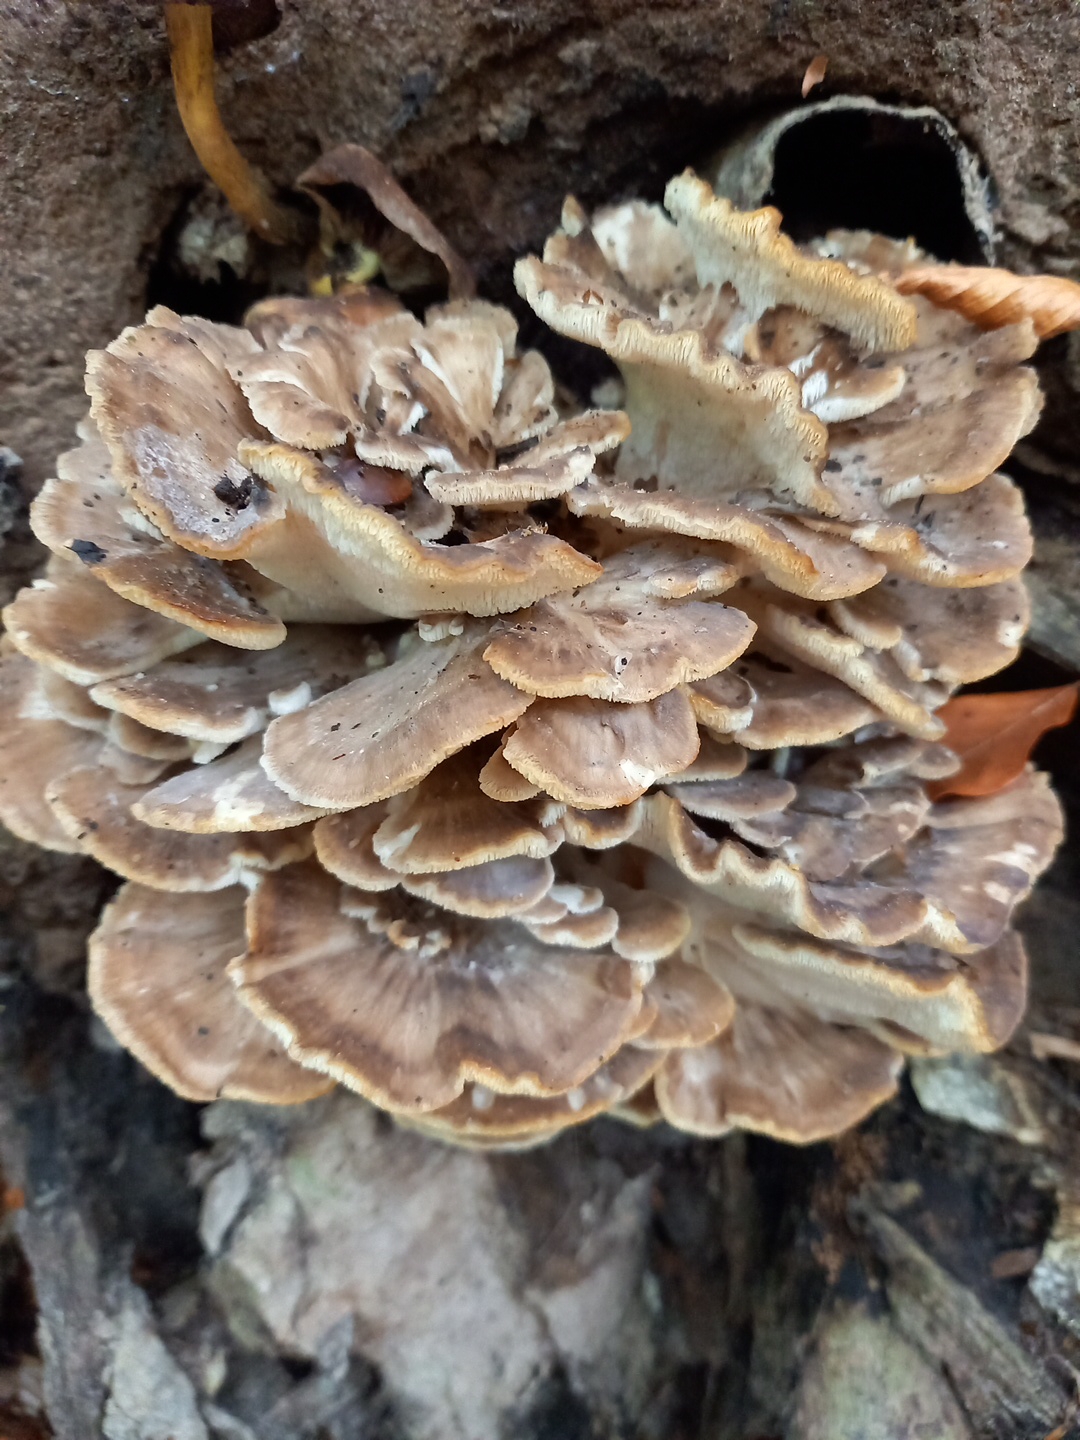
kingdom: Fungi
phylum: Basidiomycota
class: Agaricomycetes
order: Polyporales
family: Grifolaceae
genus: Grifola
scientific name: Grifola frondosa
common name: tueporesvamp
